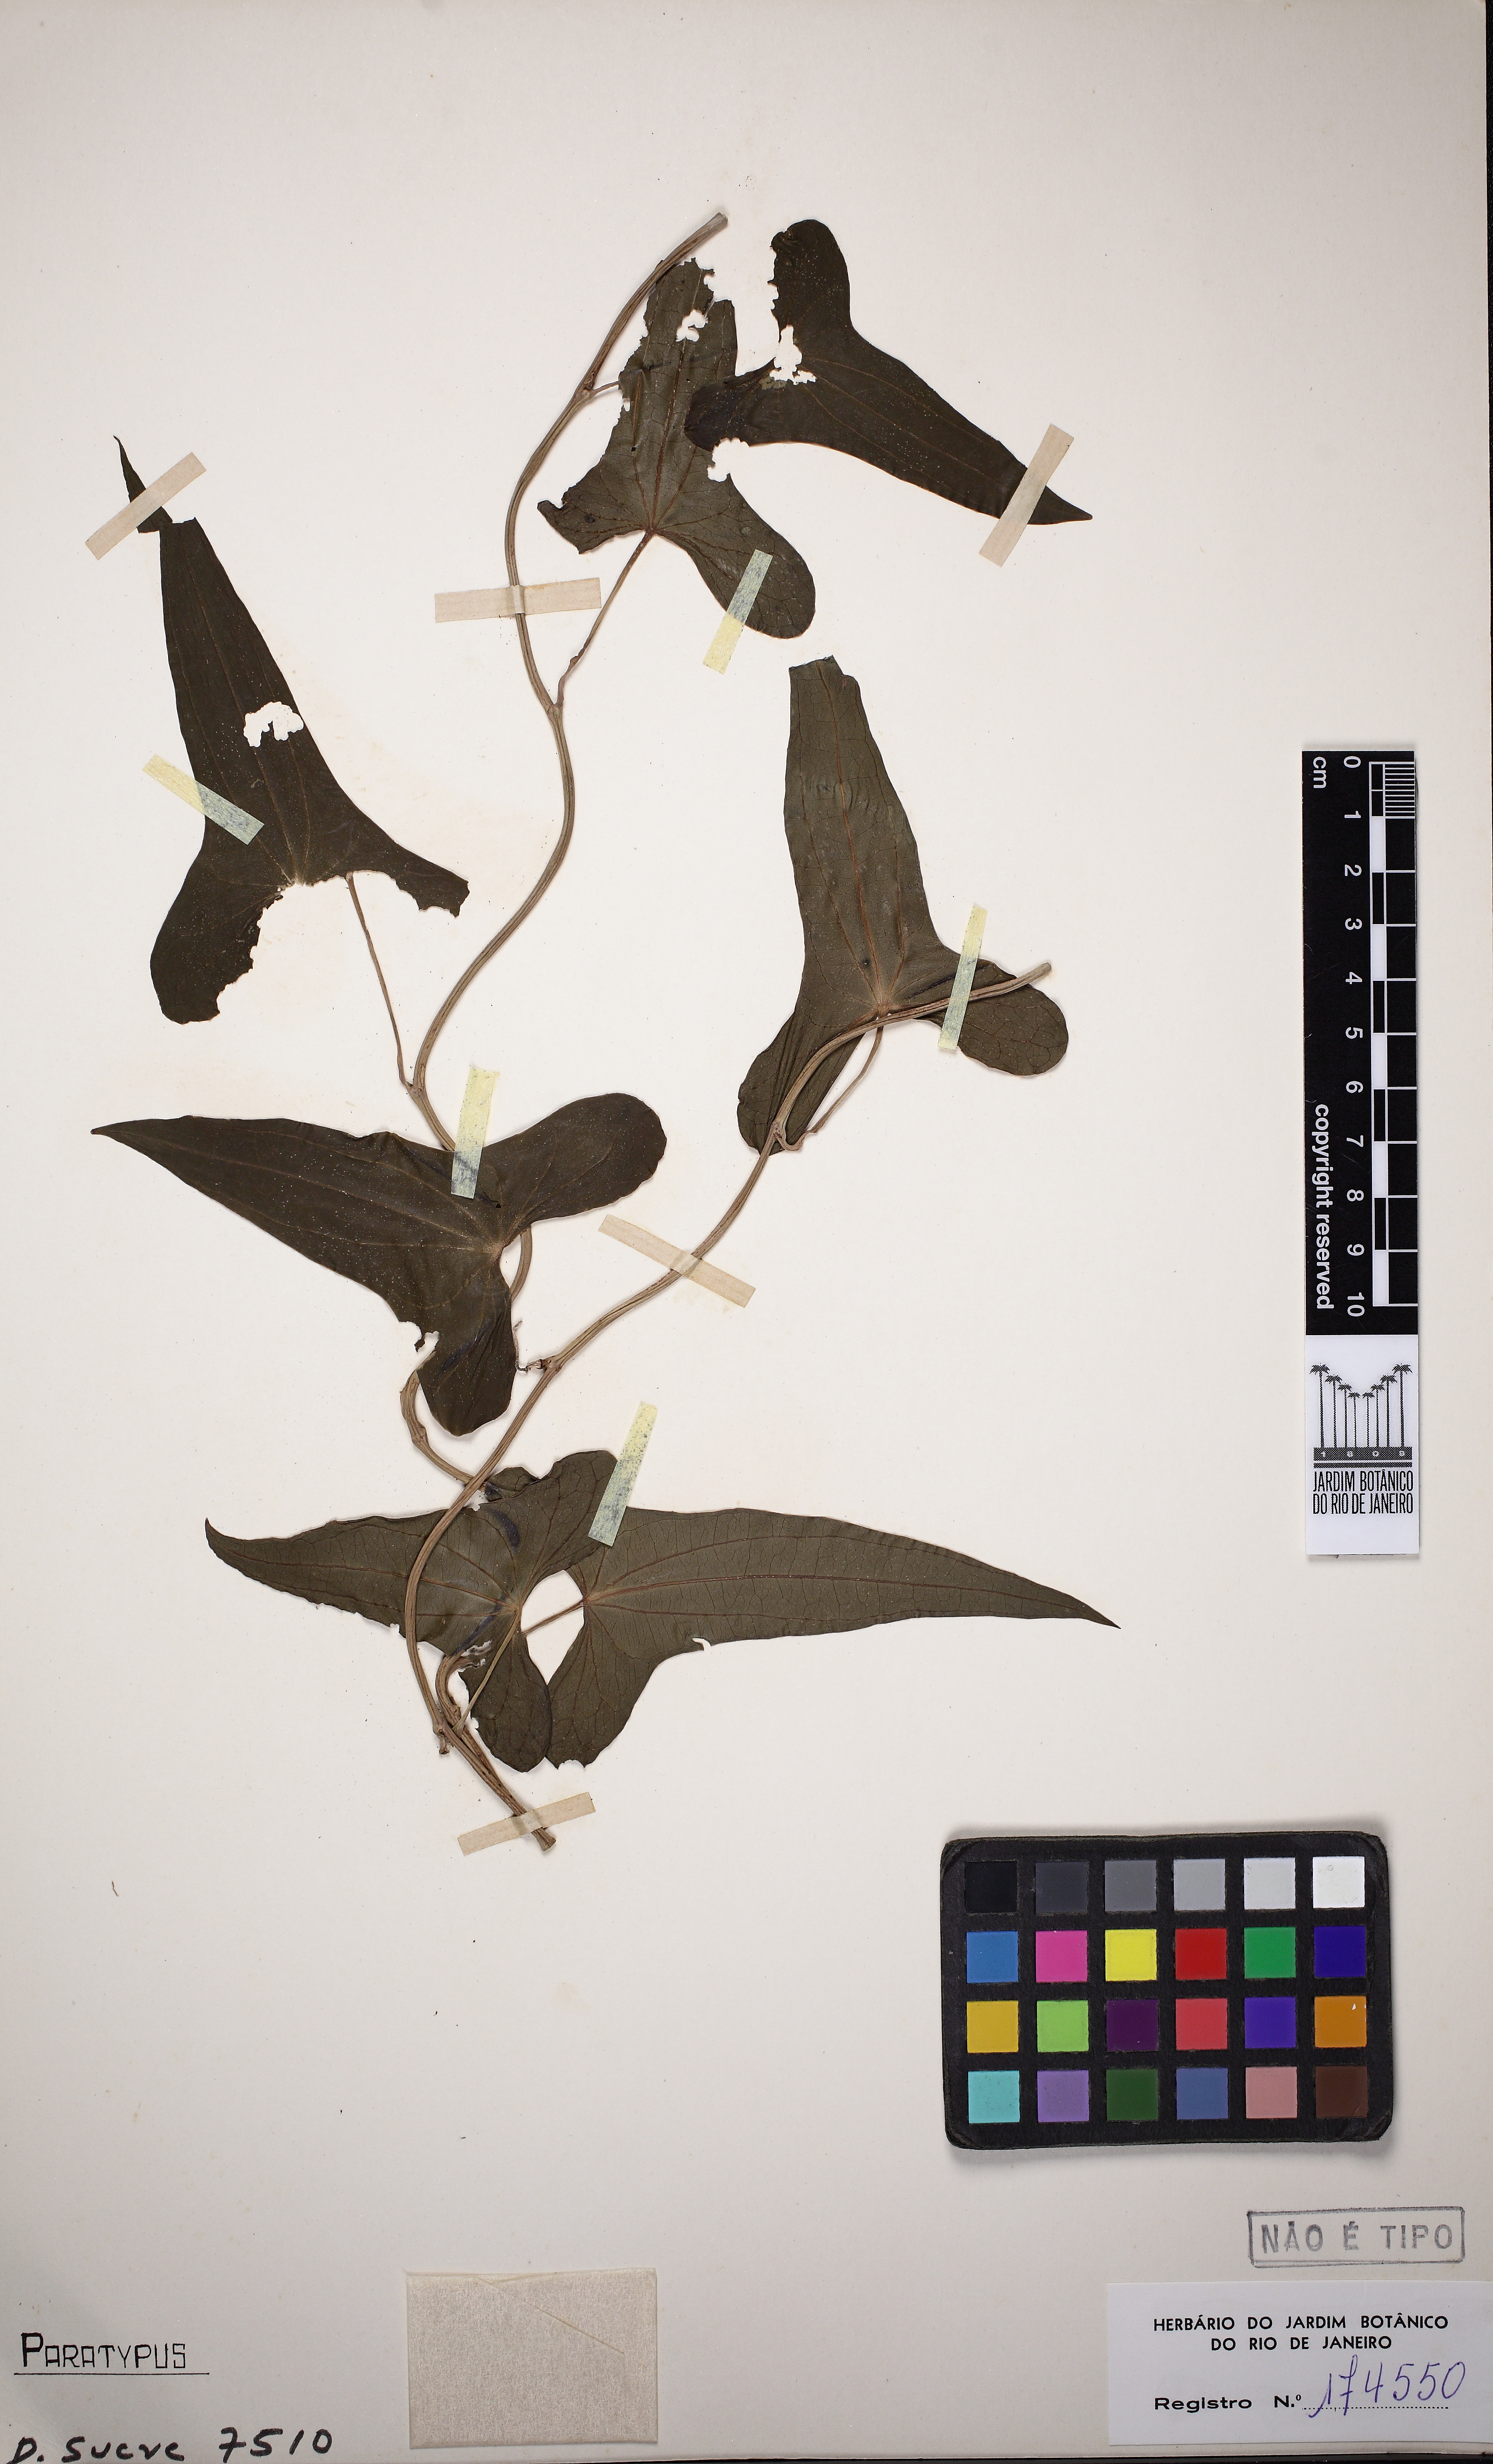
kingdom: Plantae
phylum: Tracheophyta
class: Liliopsida
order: Dioscoreales
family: Dioscoreaceae
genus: Dioscorea
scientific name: Dioscorea coronata
